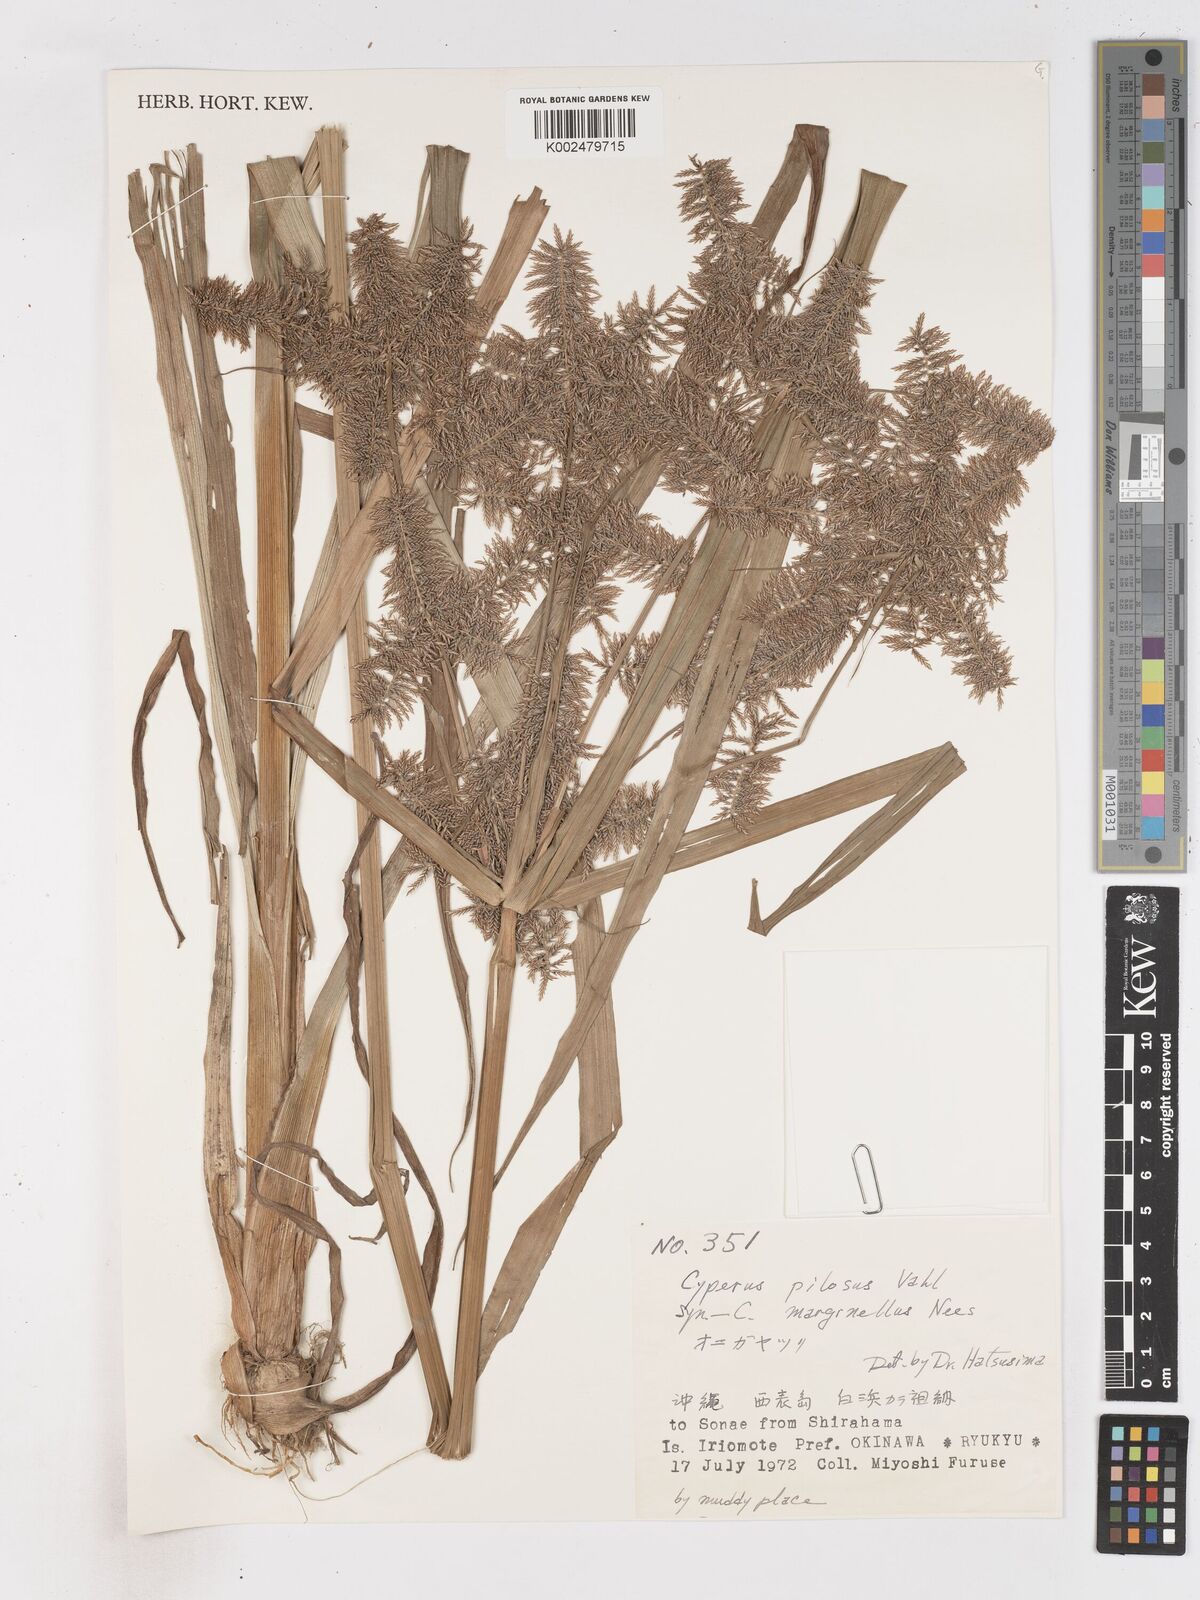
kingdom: Plantae
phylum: Tracheophyta
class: Liliopsida
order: Poales
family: Cyperaceae
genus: Cyperus
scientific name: Cyperus pilosus
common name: Fuzzy flatsedge
